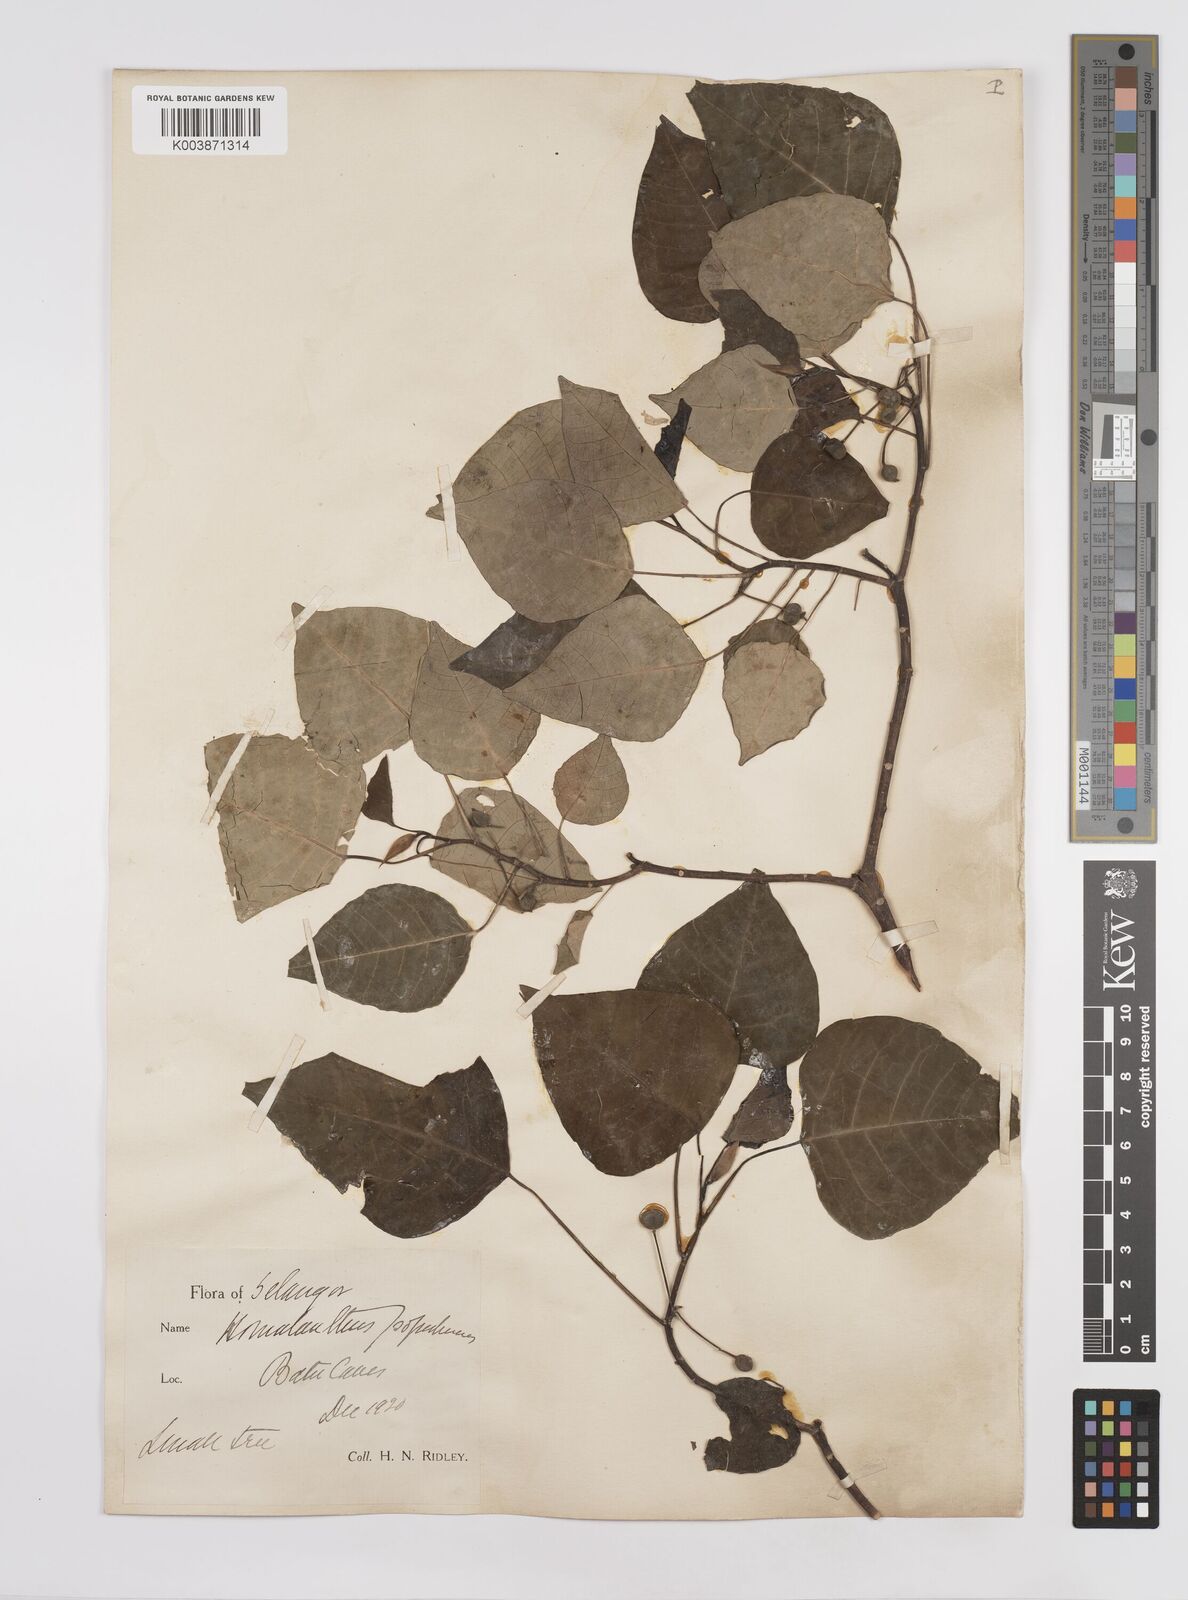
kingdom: Plantae
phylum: Tracheophyta
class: Magnoliopsida
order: Malpighiales
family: Euphorbiaceae
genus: Homalanthus
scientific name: Homalanthus populneus
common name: Spurge
